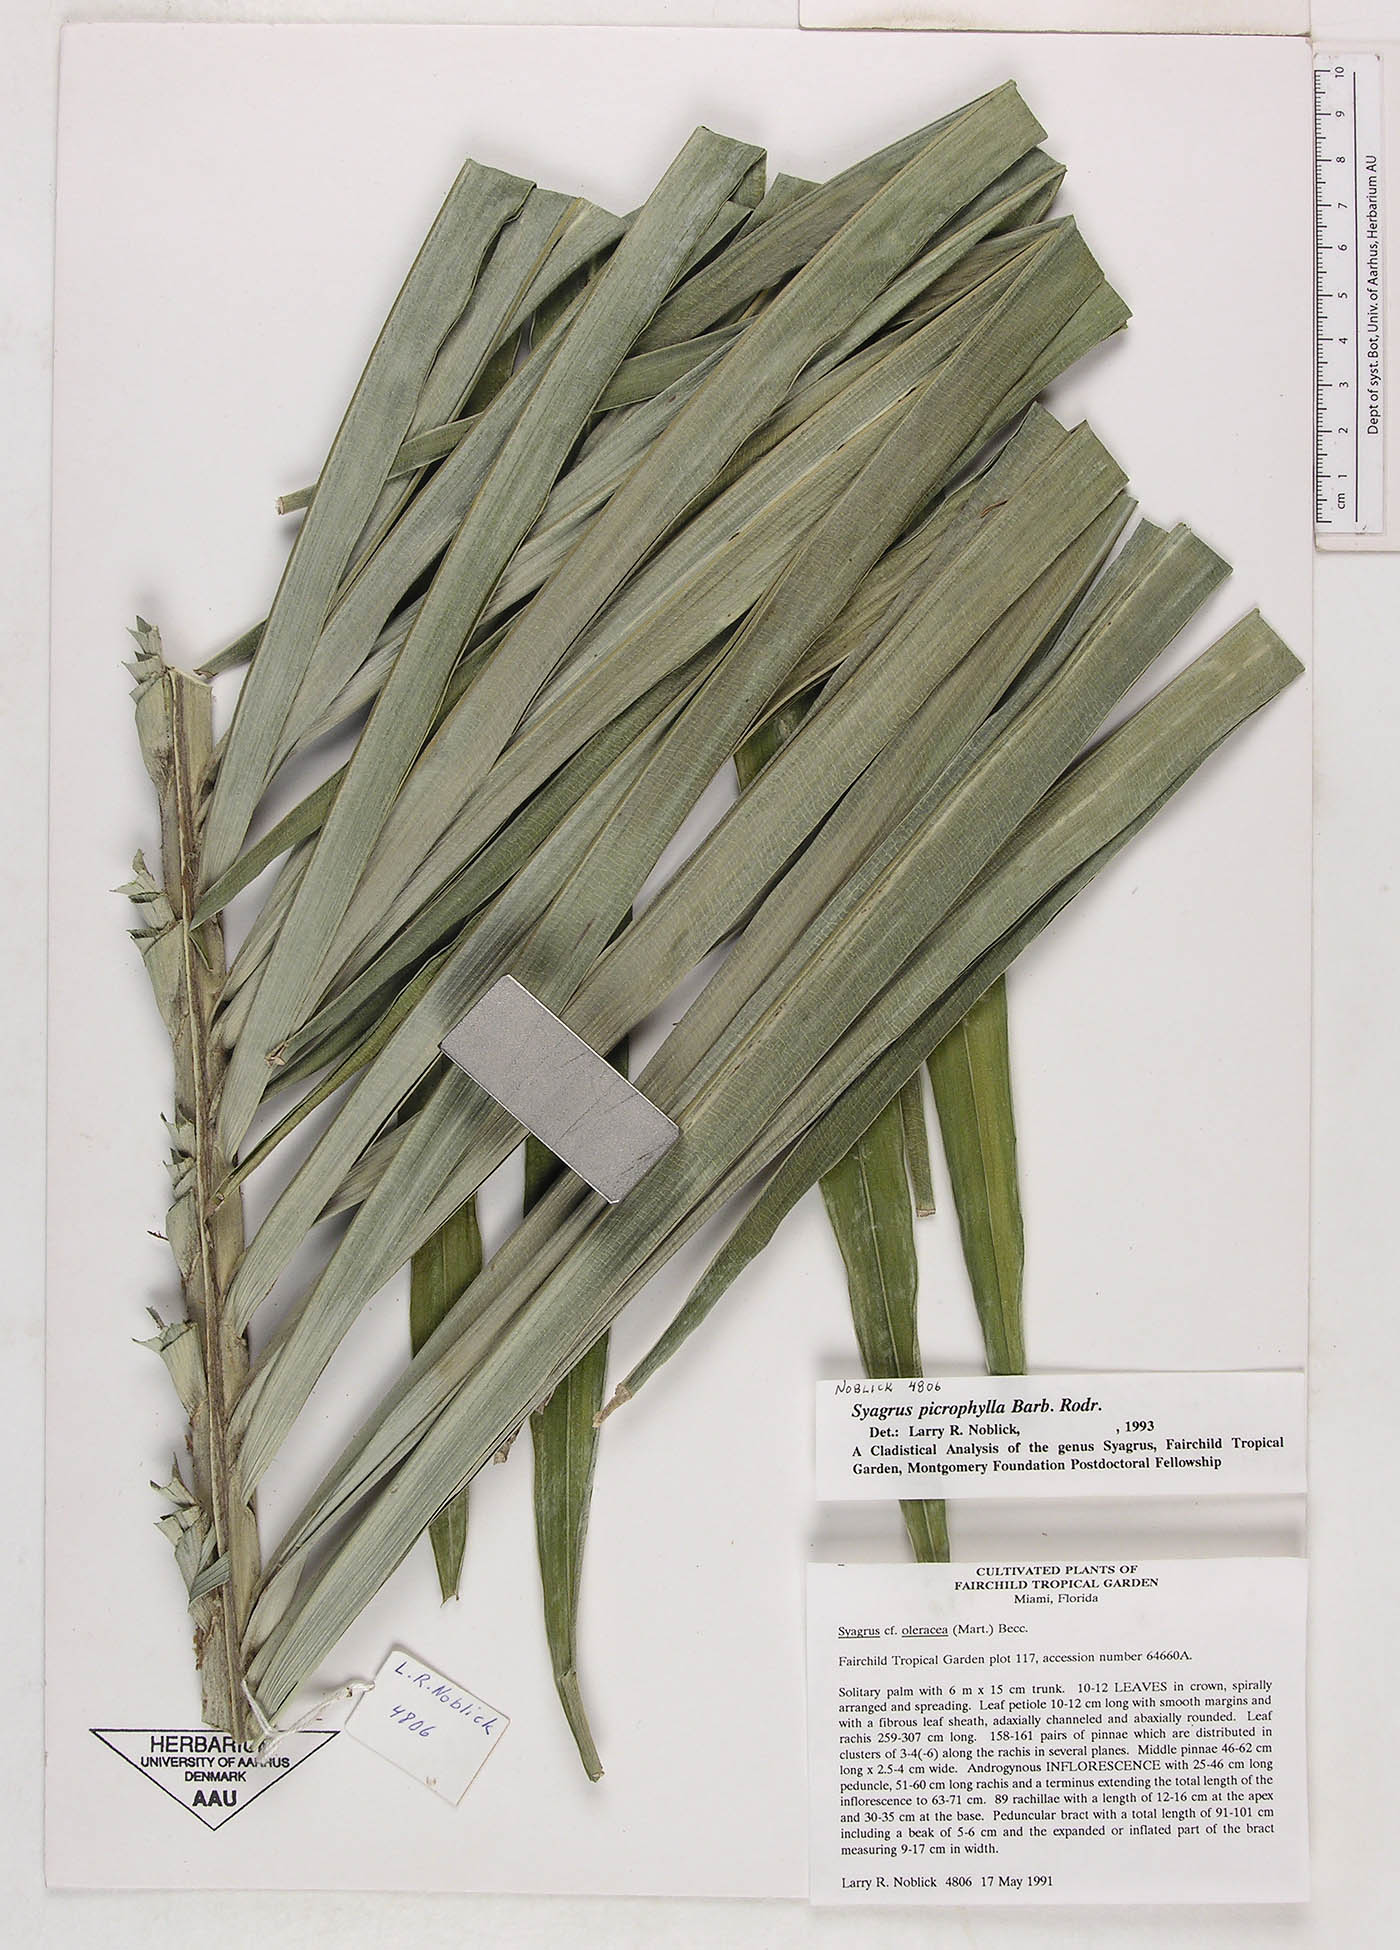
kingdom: Plantae
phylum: Tracheophyta
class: Liliopsida
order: Arecales
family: Arecaceae
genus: Syagrus
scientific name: Syagrus picrophylla
